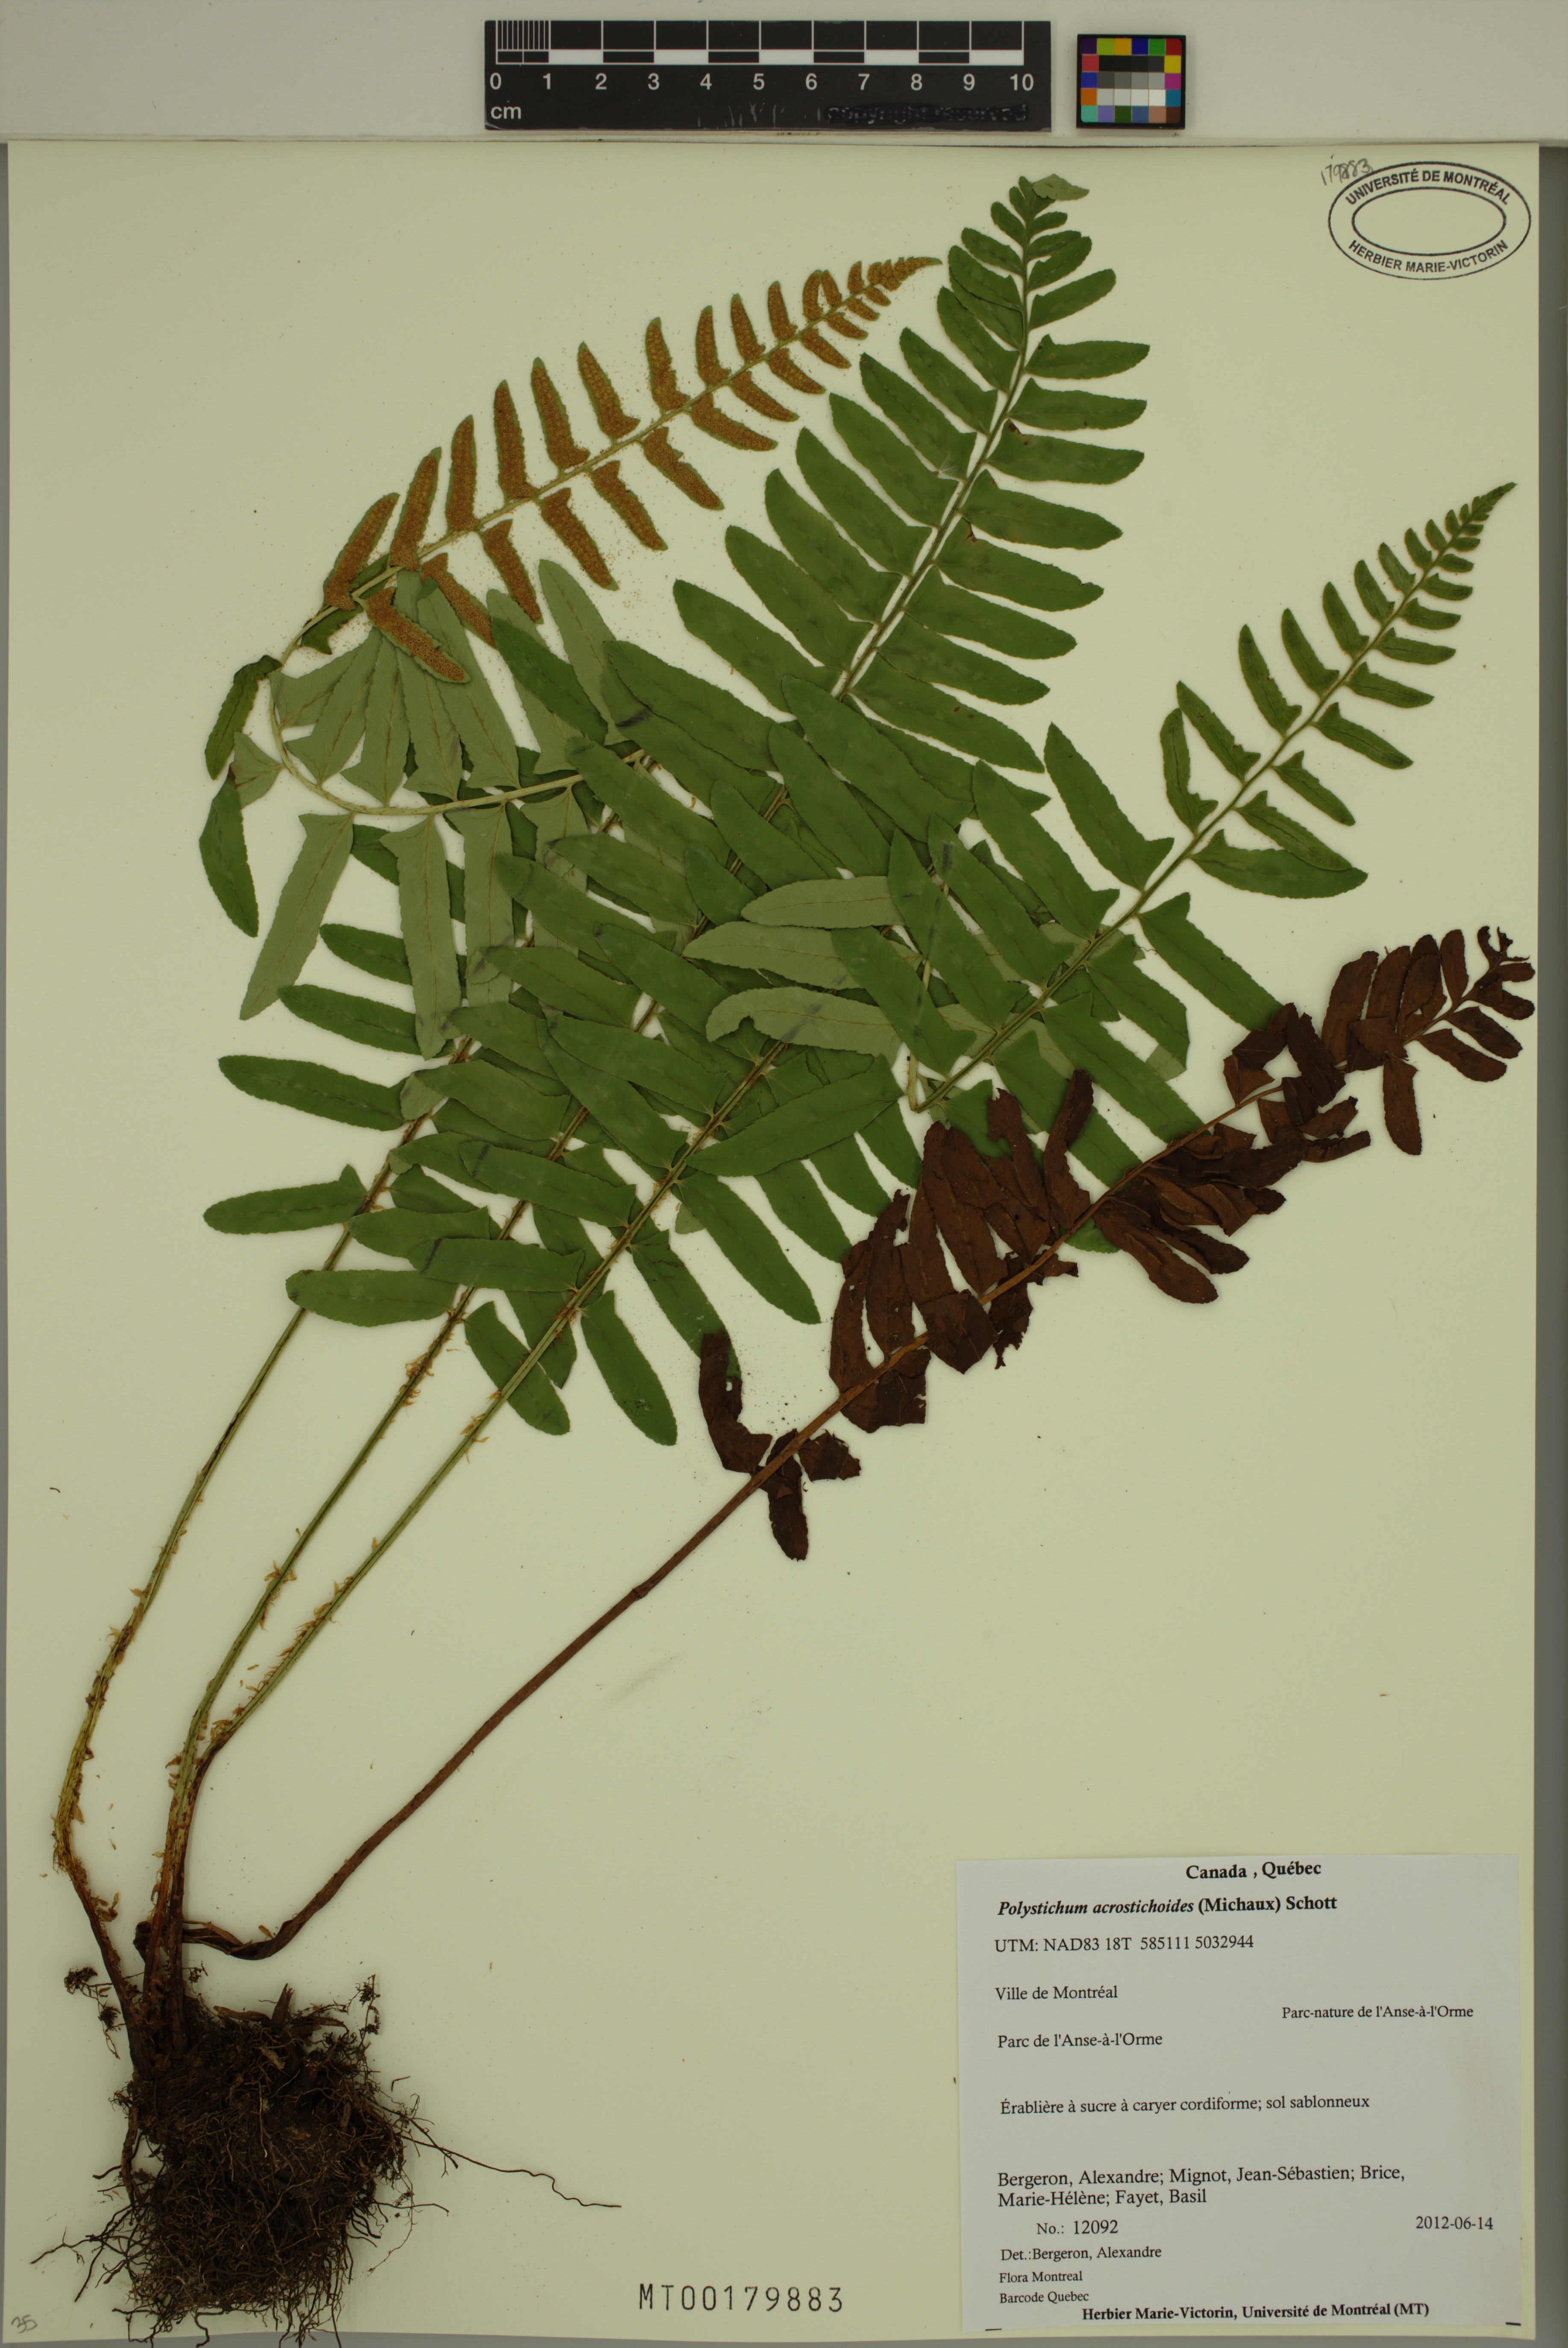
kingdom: Plantae
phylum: Tracheophyta
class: Polypodiopsida
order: Polypodiales
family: Dryopteridaceae
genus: Polystichum
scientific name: Polystichum acrostichoides
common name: Christmas fern
